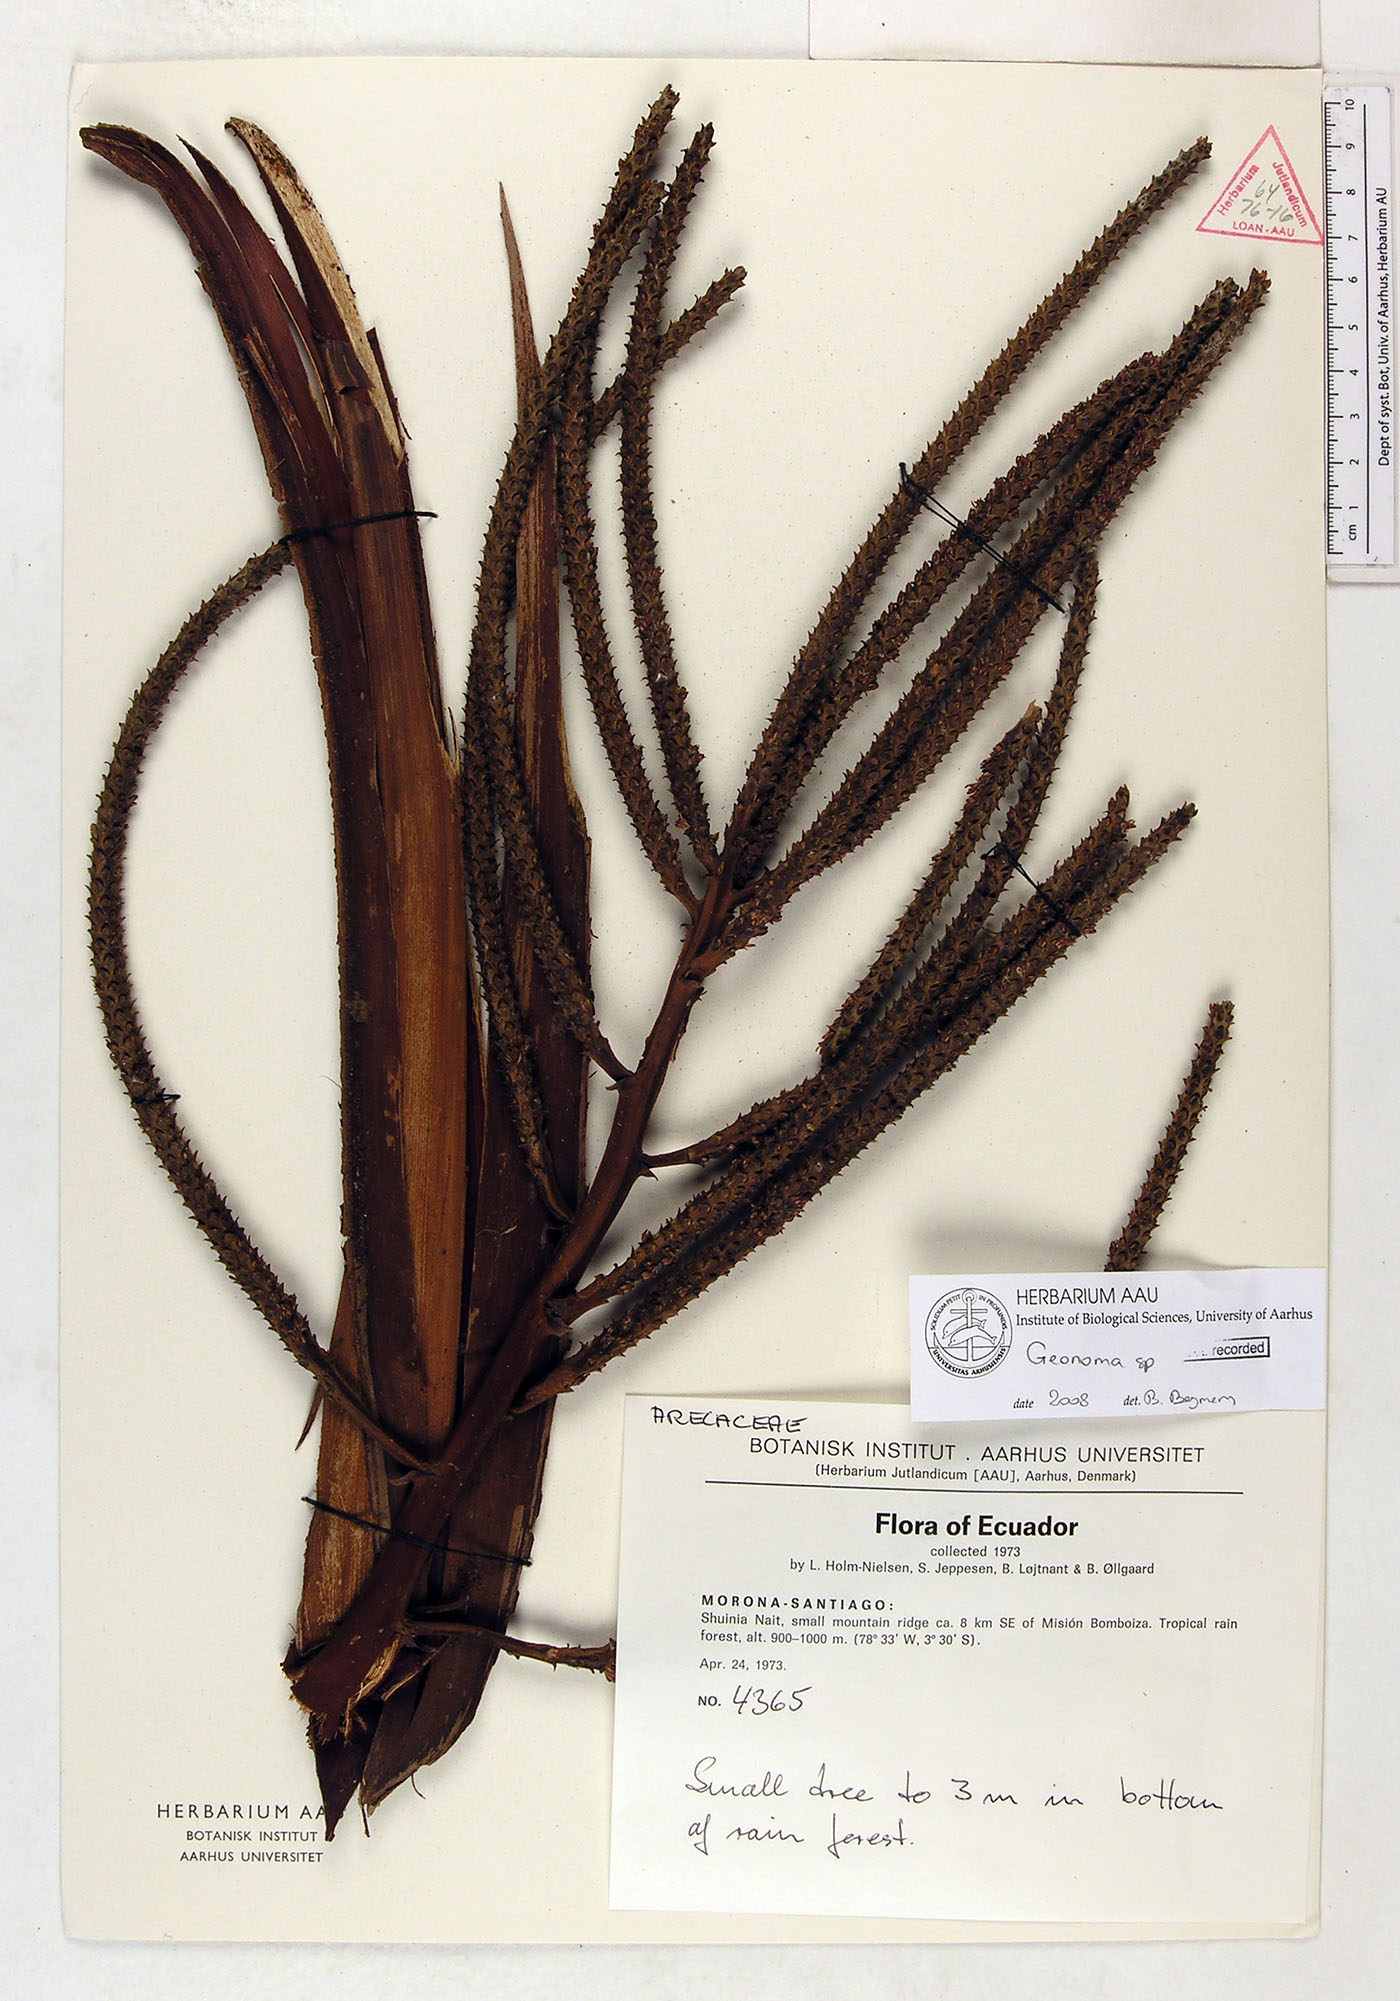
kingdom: Plantae
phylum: Tracheophyta
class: Liliopsida
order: Arecales
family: Arecaceae
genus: Pholidostachys
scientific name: Pholidostachys synanthera
